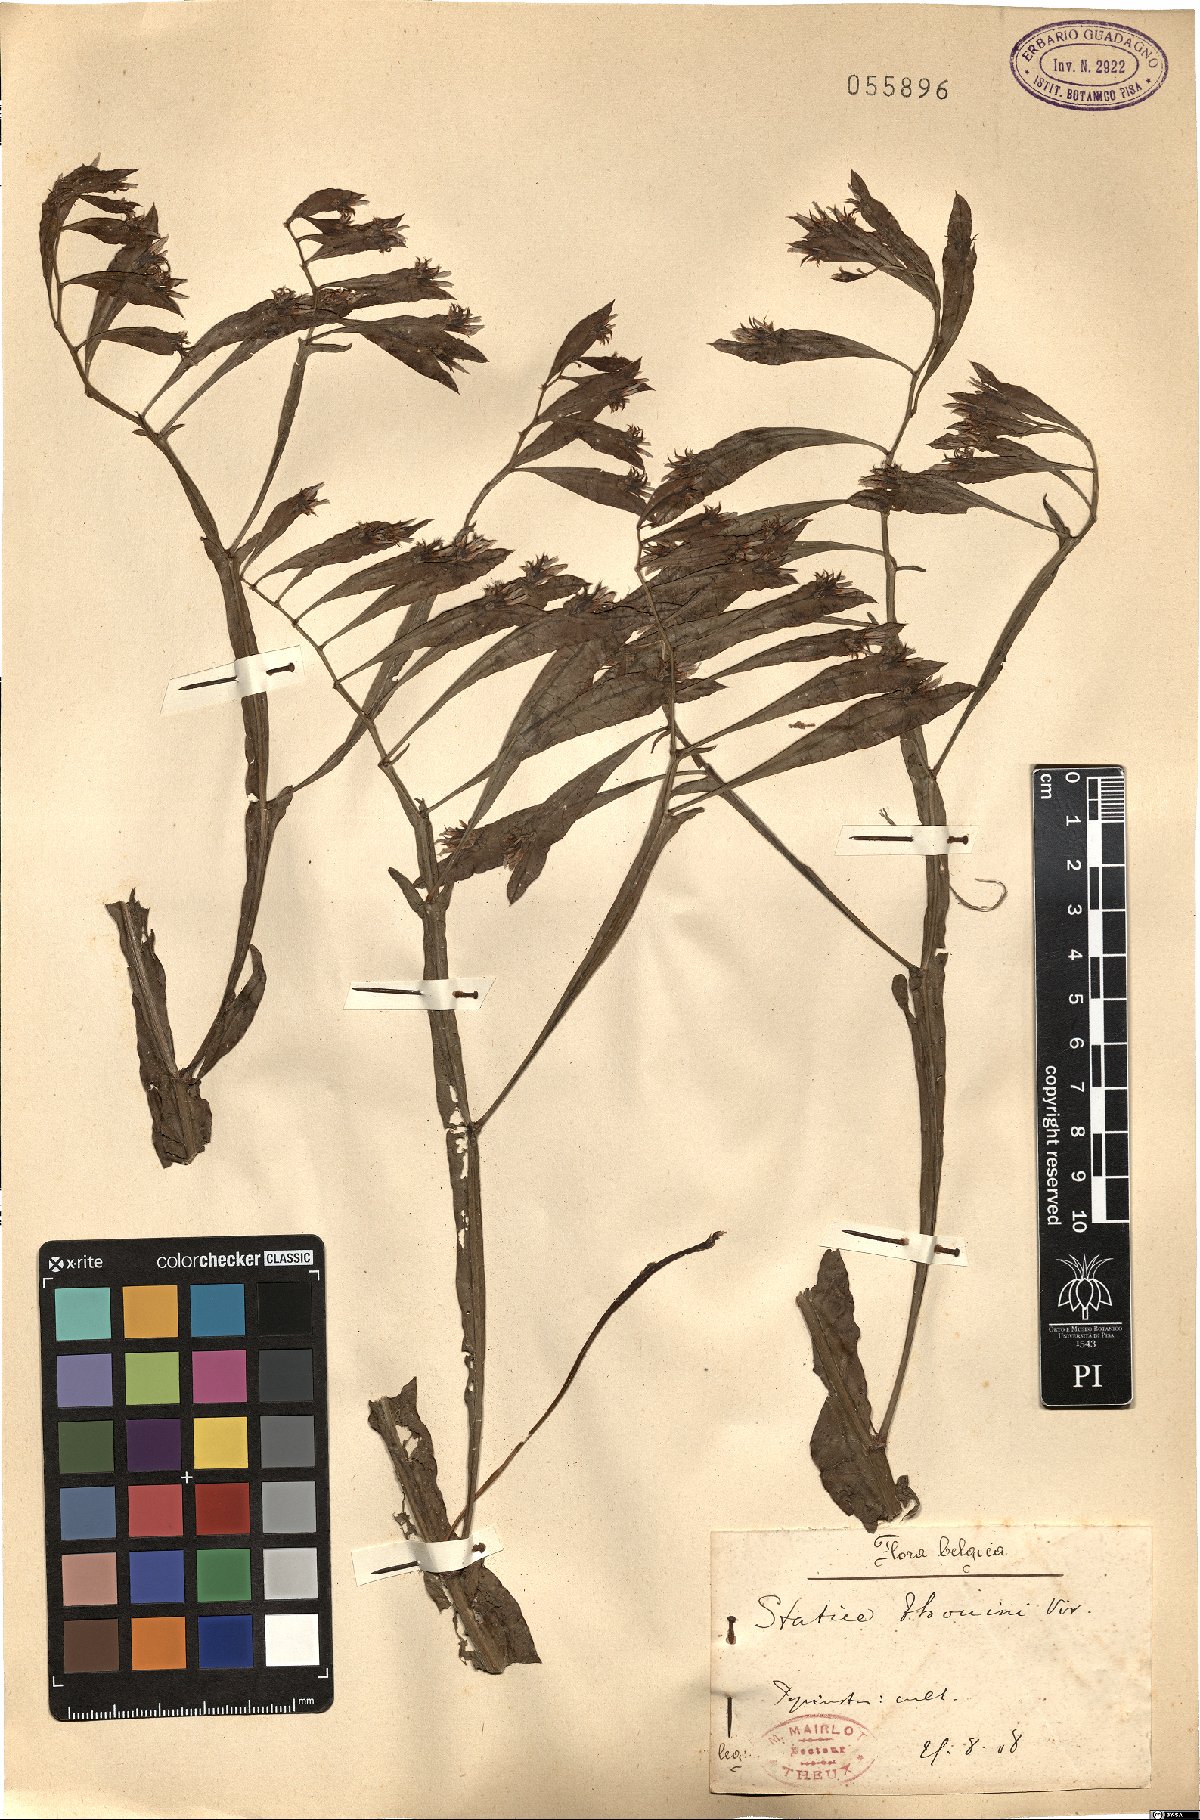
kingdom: Plantae
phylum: Tracheophyta
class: Magnoliopsida
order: Caryophyllales
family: Plumbaginaceae
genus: Limonium
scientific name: Limonium lobatum
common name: Winged sea-lavender
